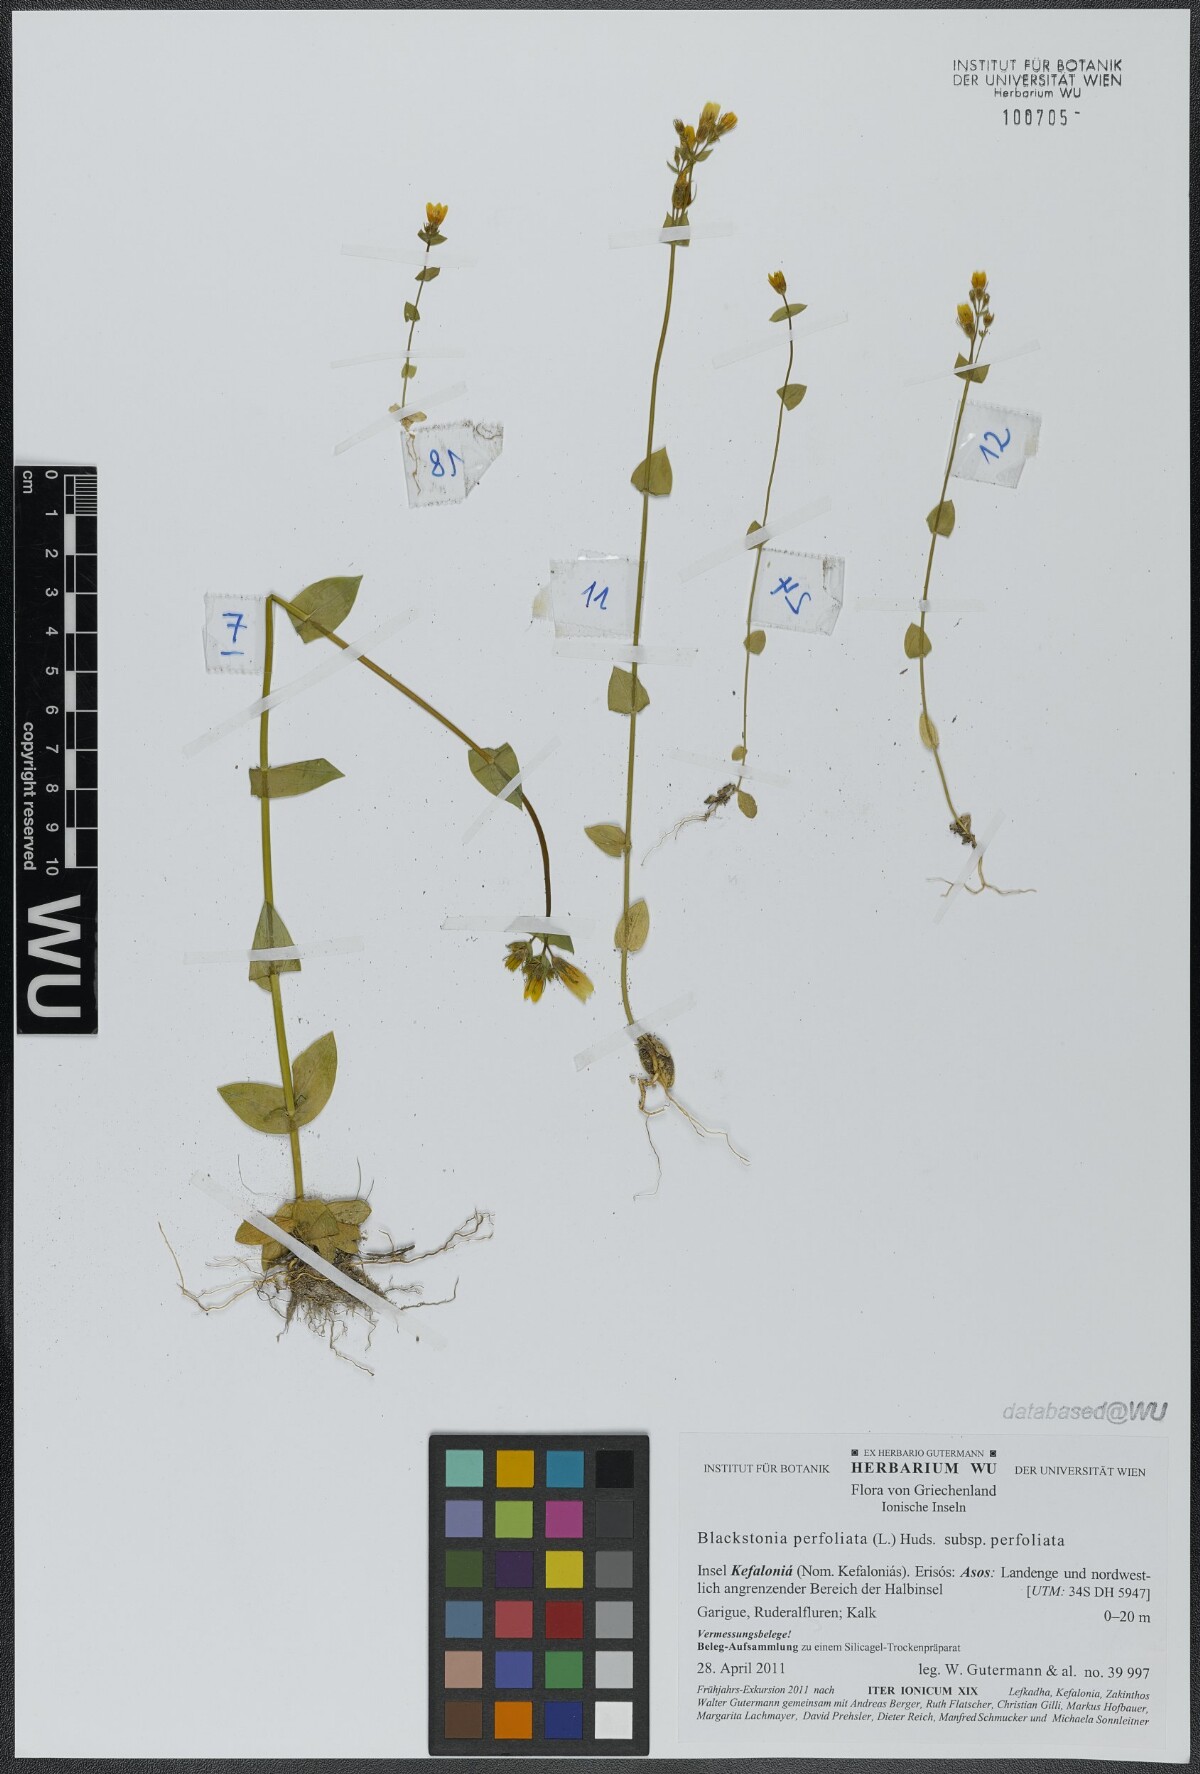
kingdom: Plantae
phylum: Tracheophyta
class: Magnoliopsida
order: Gentianales
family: Gentianaceae
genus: Blackstonia
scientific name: Blackstonia perfoliata
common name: Yellow-wort
